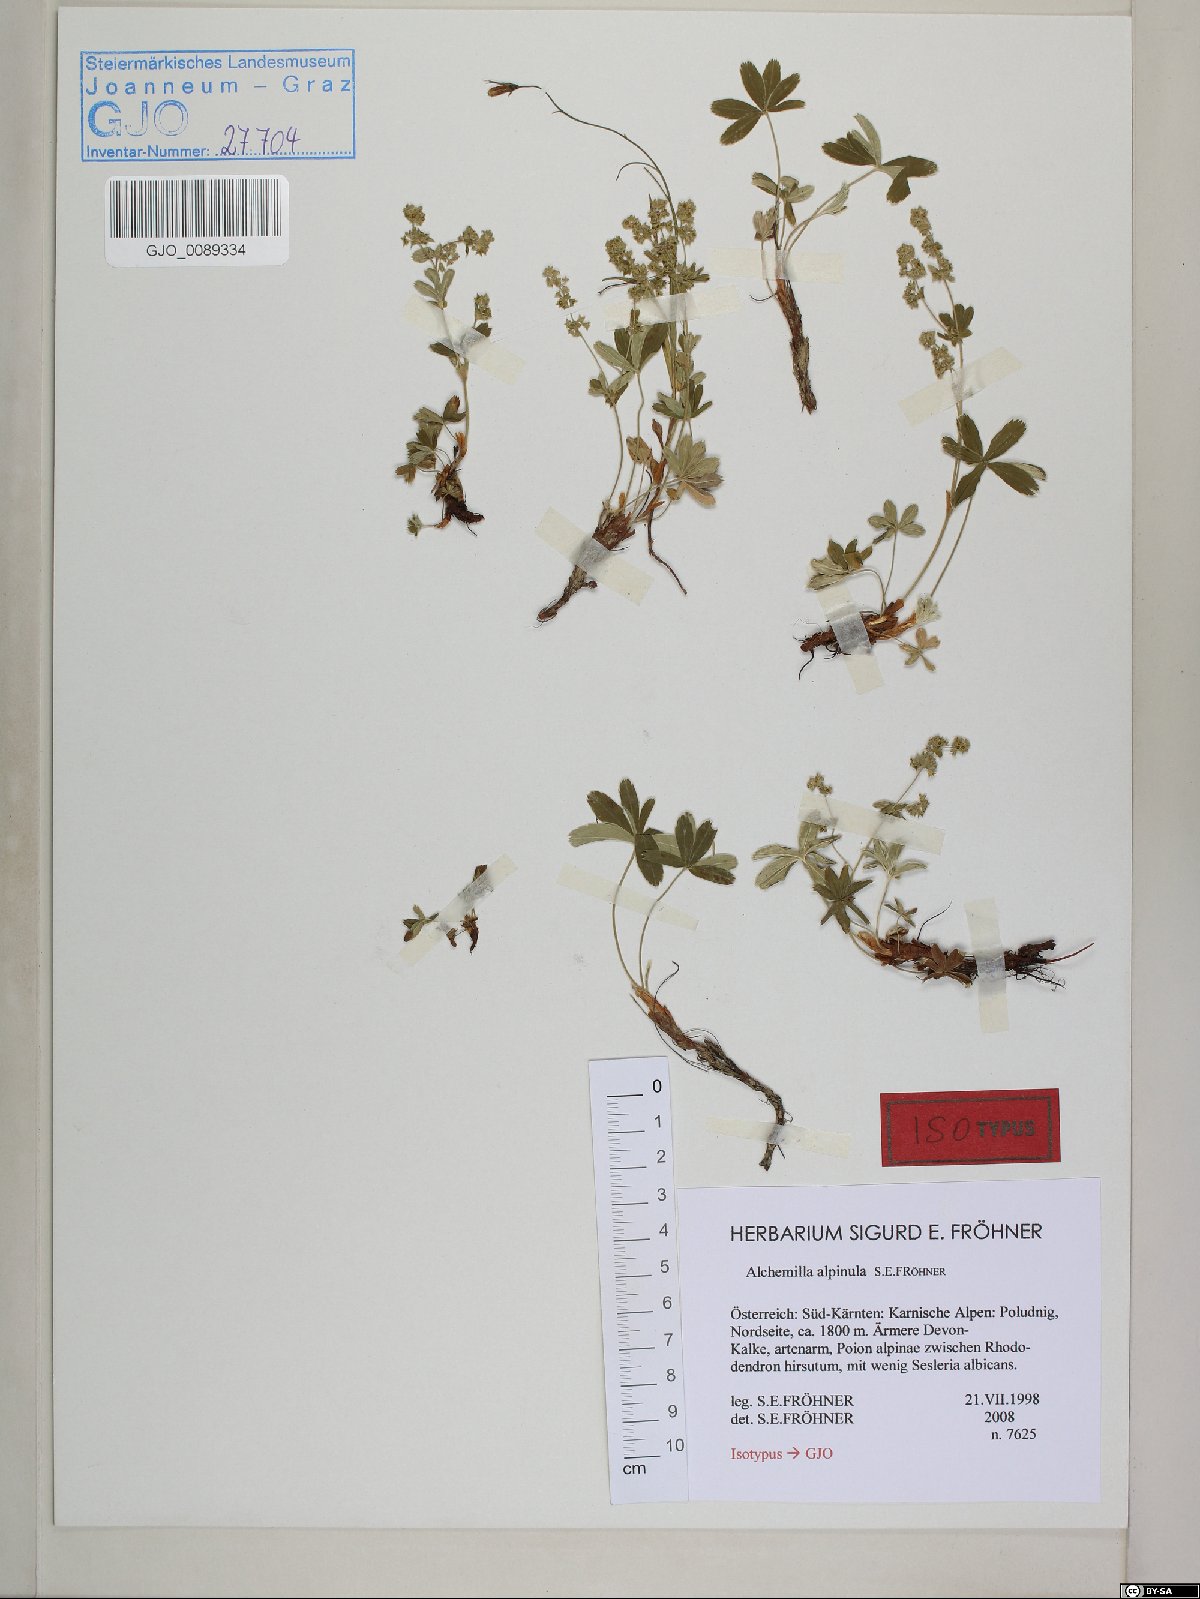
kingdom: Plantae
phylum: Tracheophyta
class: Magnoliopsida
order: Rosales
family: Rosaceae
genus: Alchemilla
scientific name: Alchemilla alpinula
